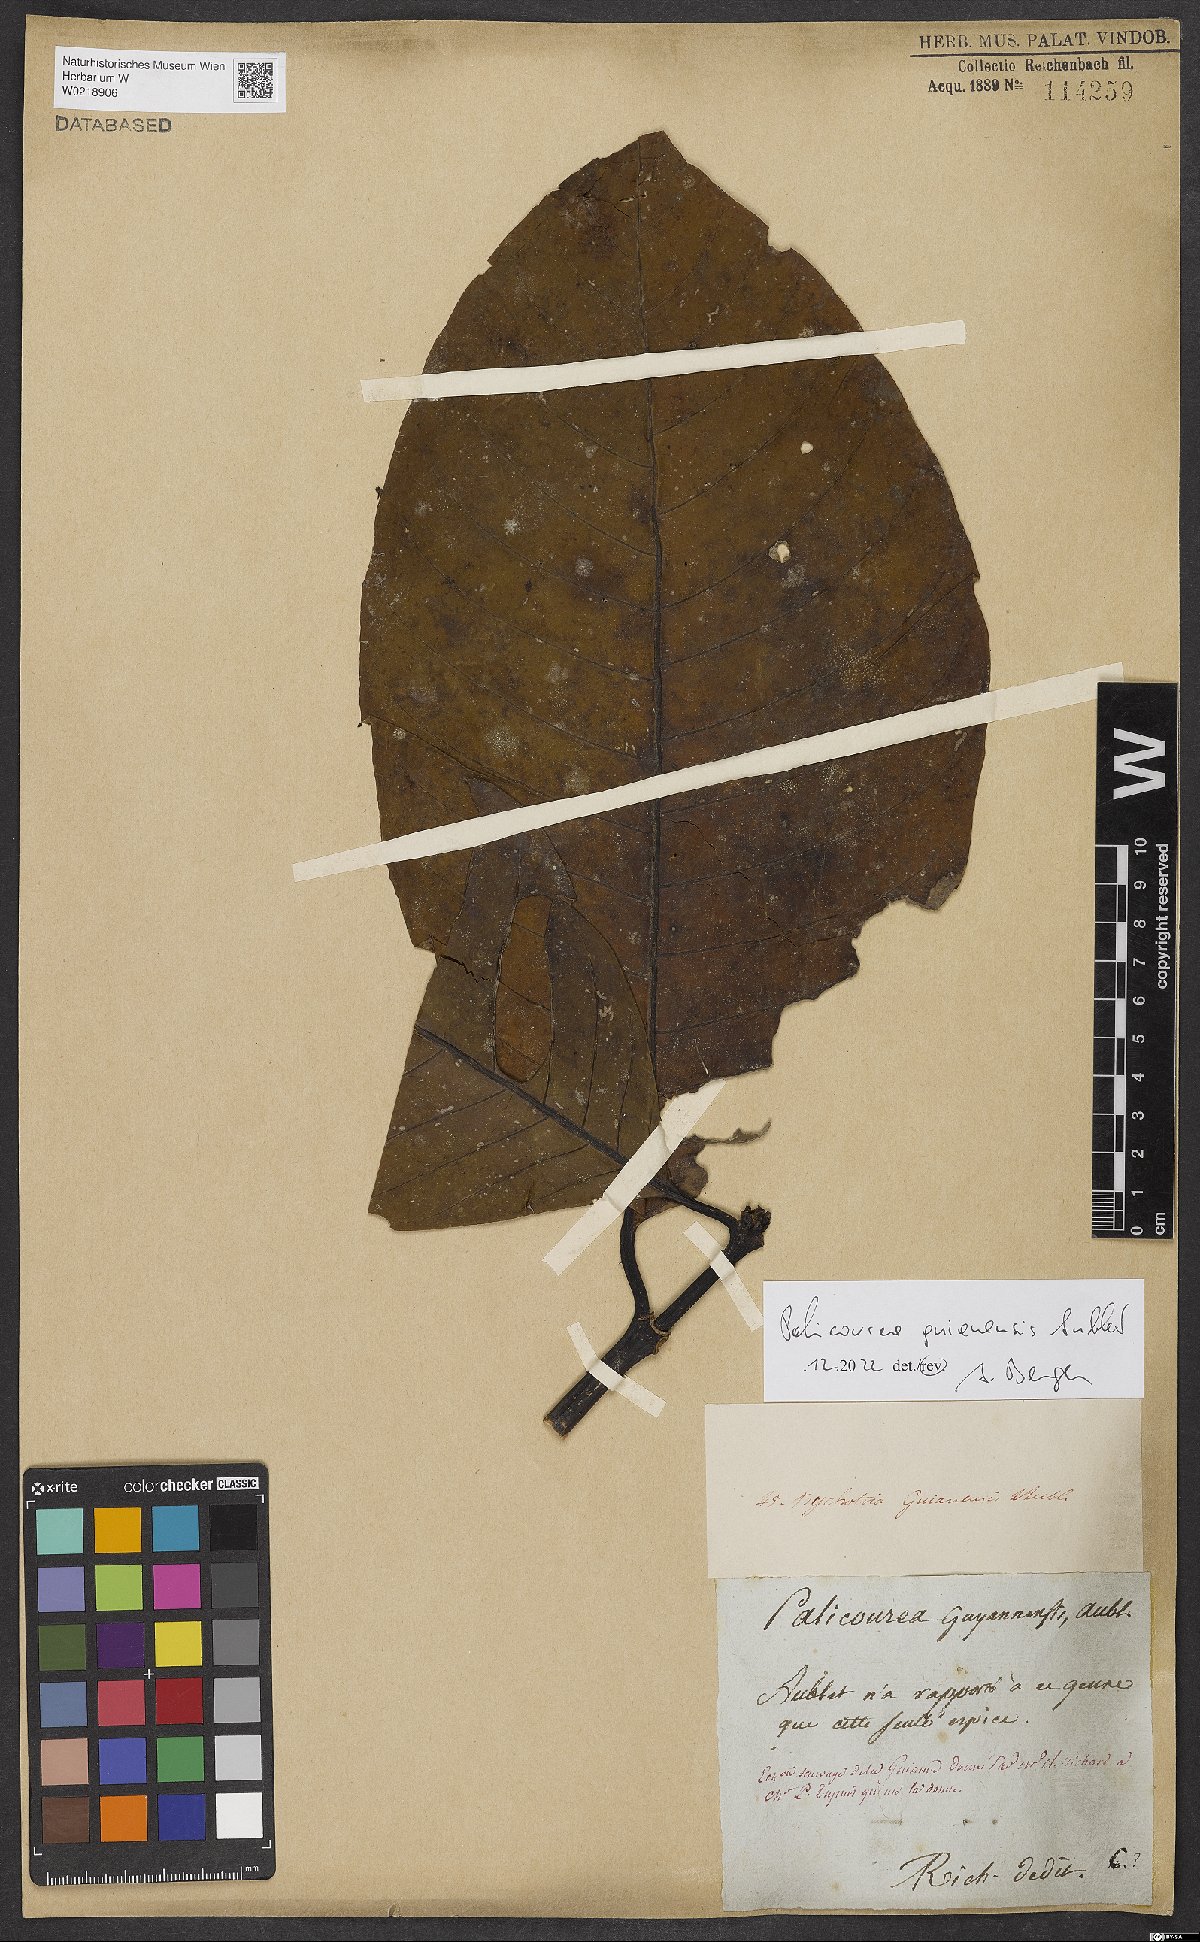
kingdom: Plantae
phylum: Tracheophyta
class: Magnoliopsida
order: Gentianales
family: Rubiaceae
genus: Palicourea
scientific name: Palicourea guianensis
